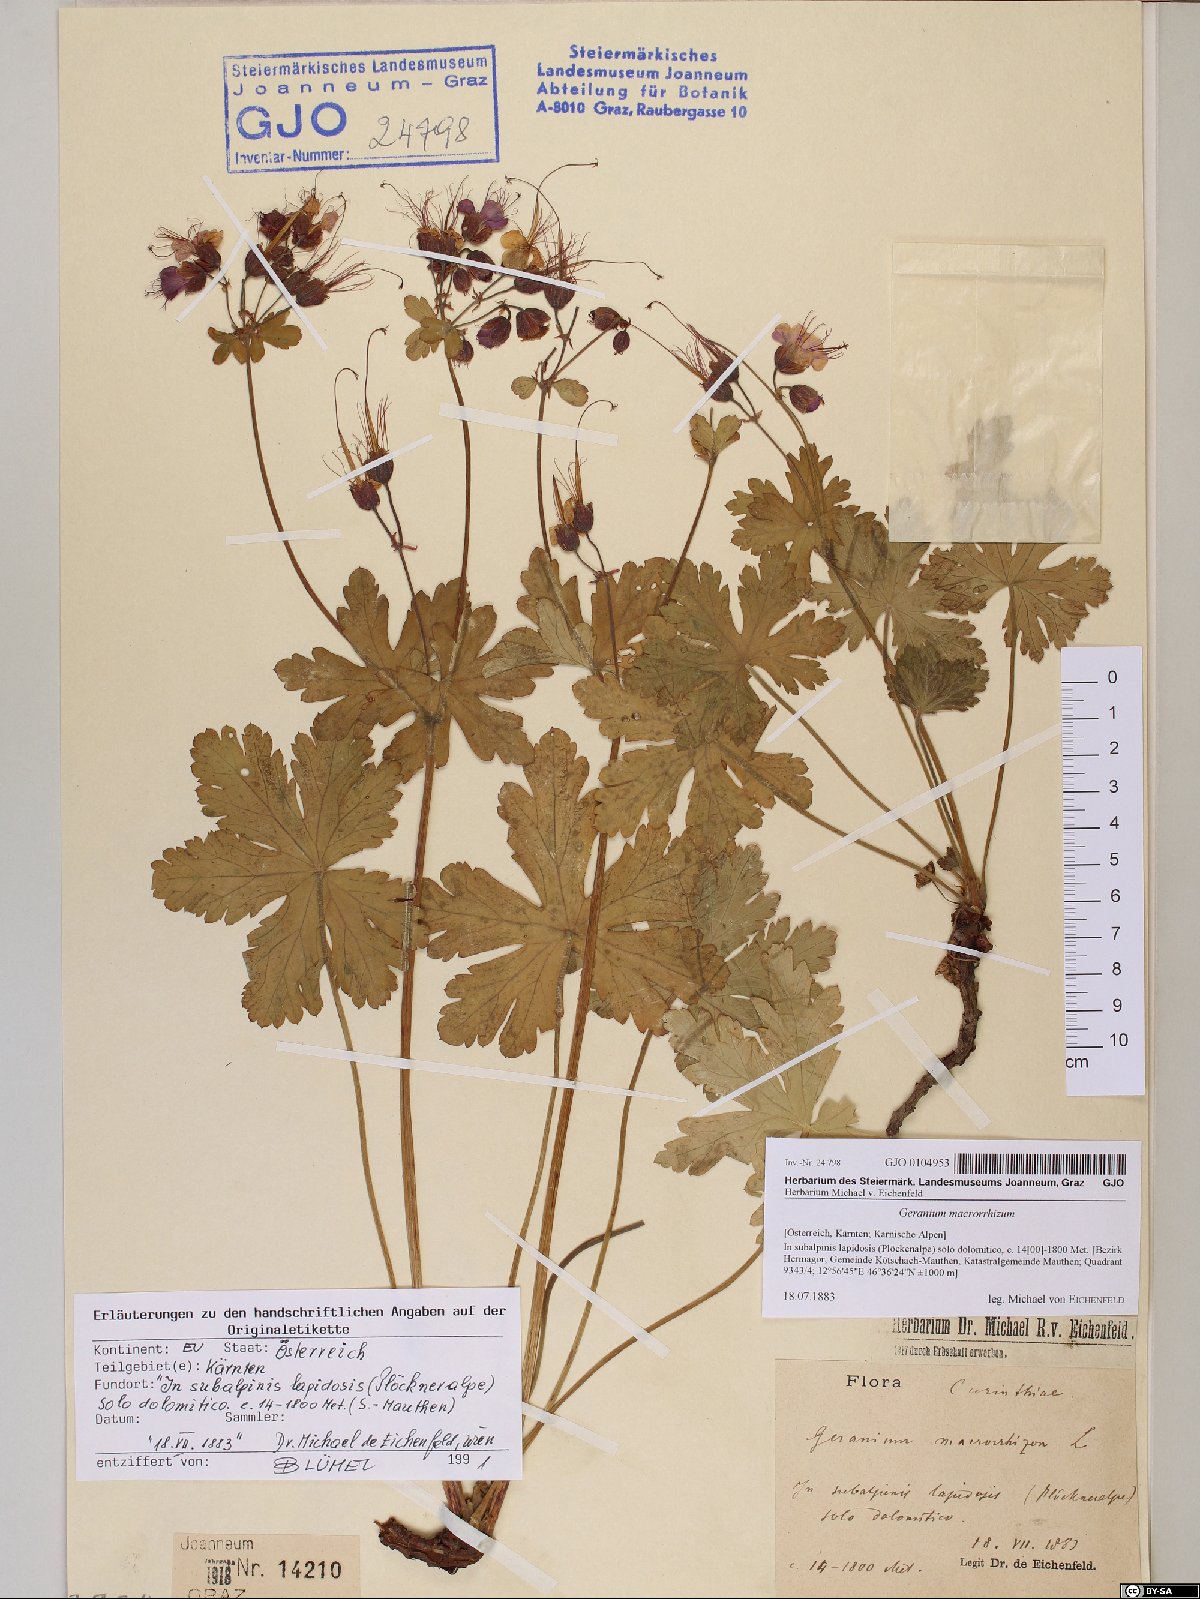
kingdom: Plantae
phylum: Tracheophyta
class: Magnoliopsida
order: Geraniales
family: Geraniaceae
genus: Geranium
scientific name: Geranium macrorrhizum
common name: Rock crane's-bill
